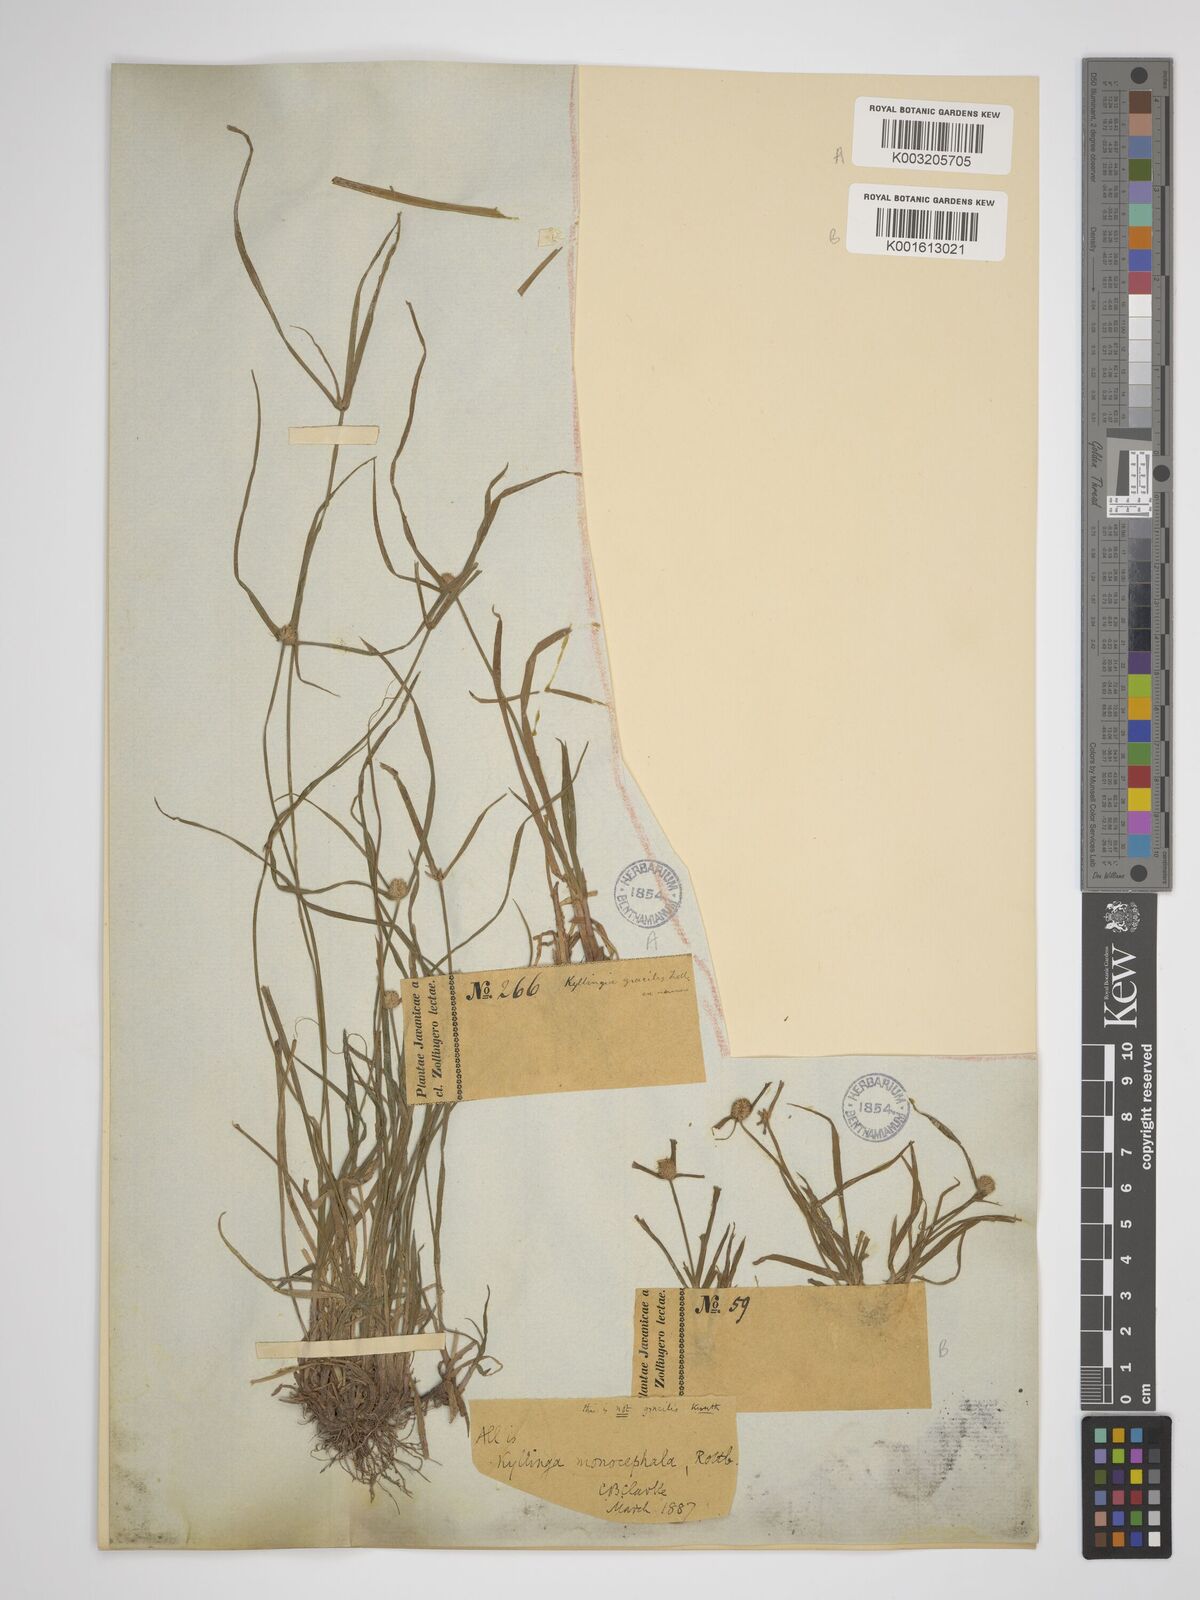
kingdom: Plantae
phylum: Tracheophyta
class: Liliopsida
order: Poales
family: Cyperaceae
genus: Rhynchospora
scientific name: Rhynchospora colorata
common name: Star sedge
